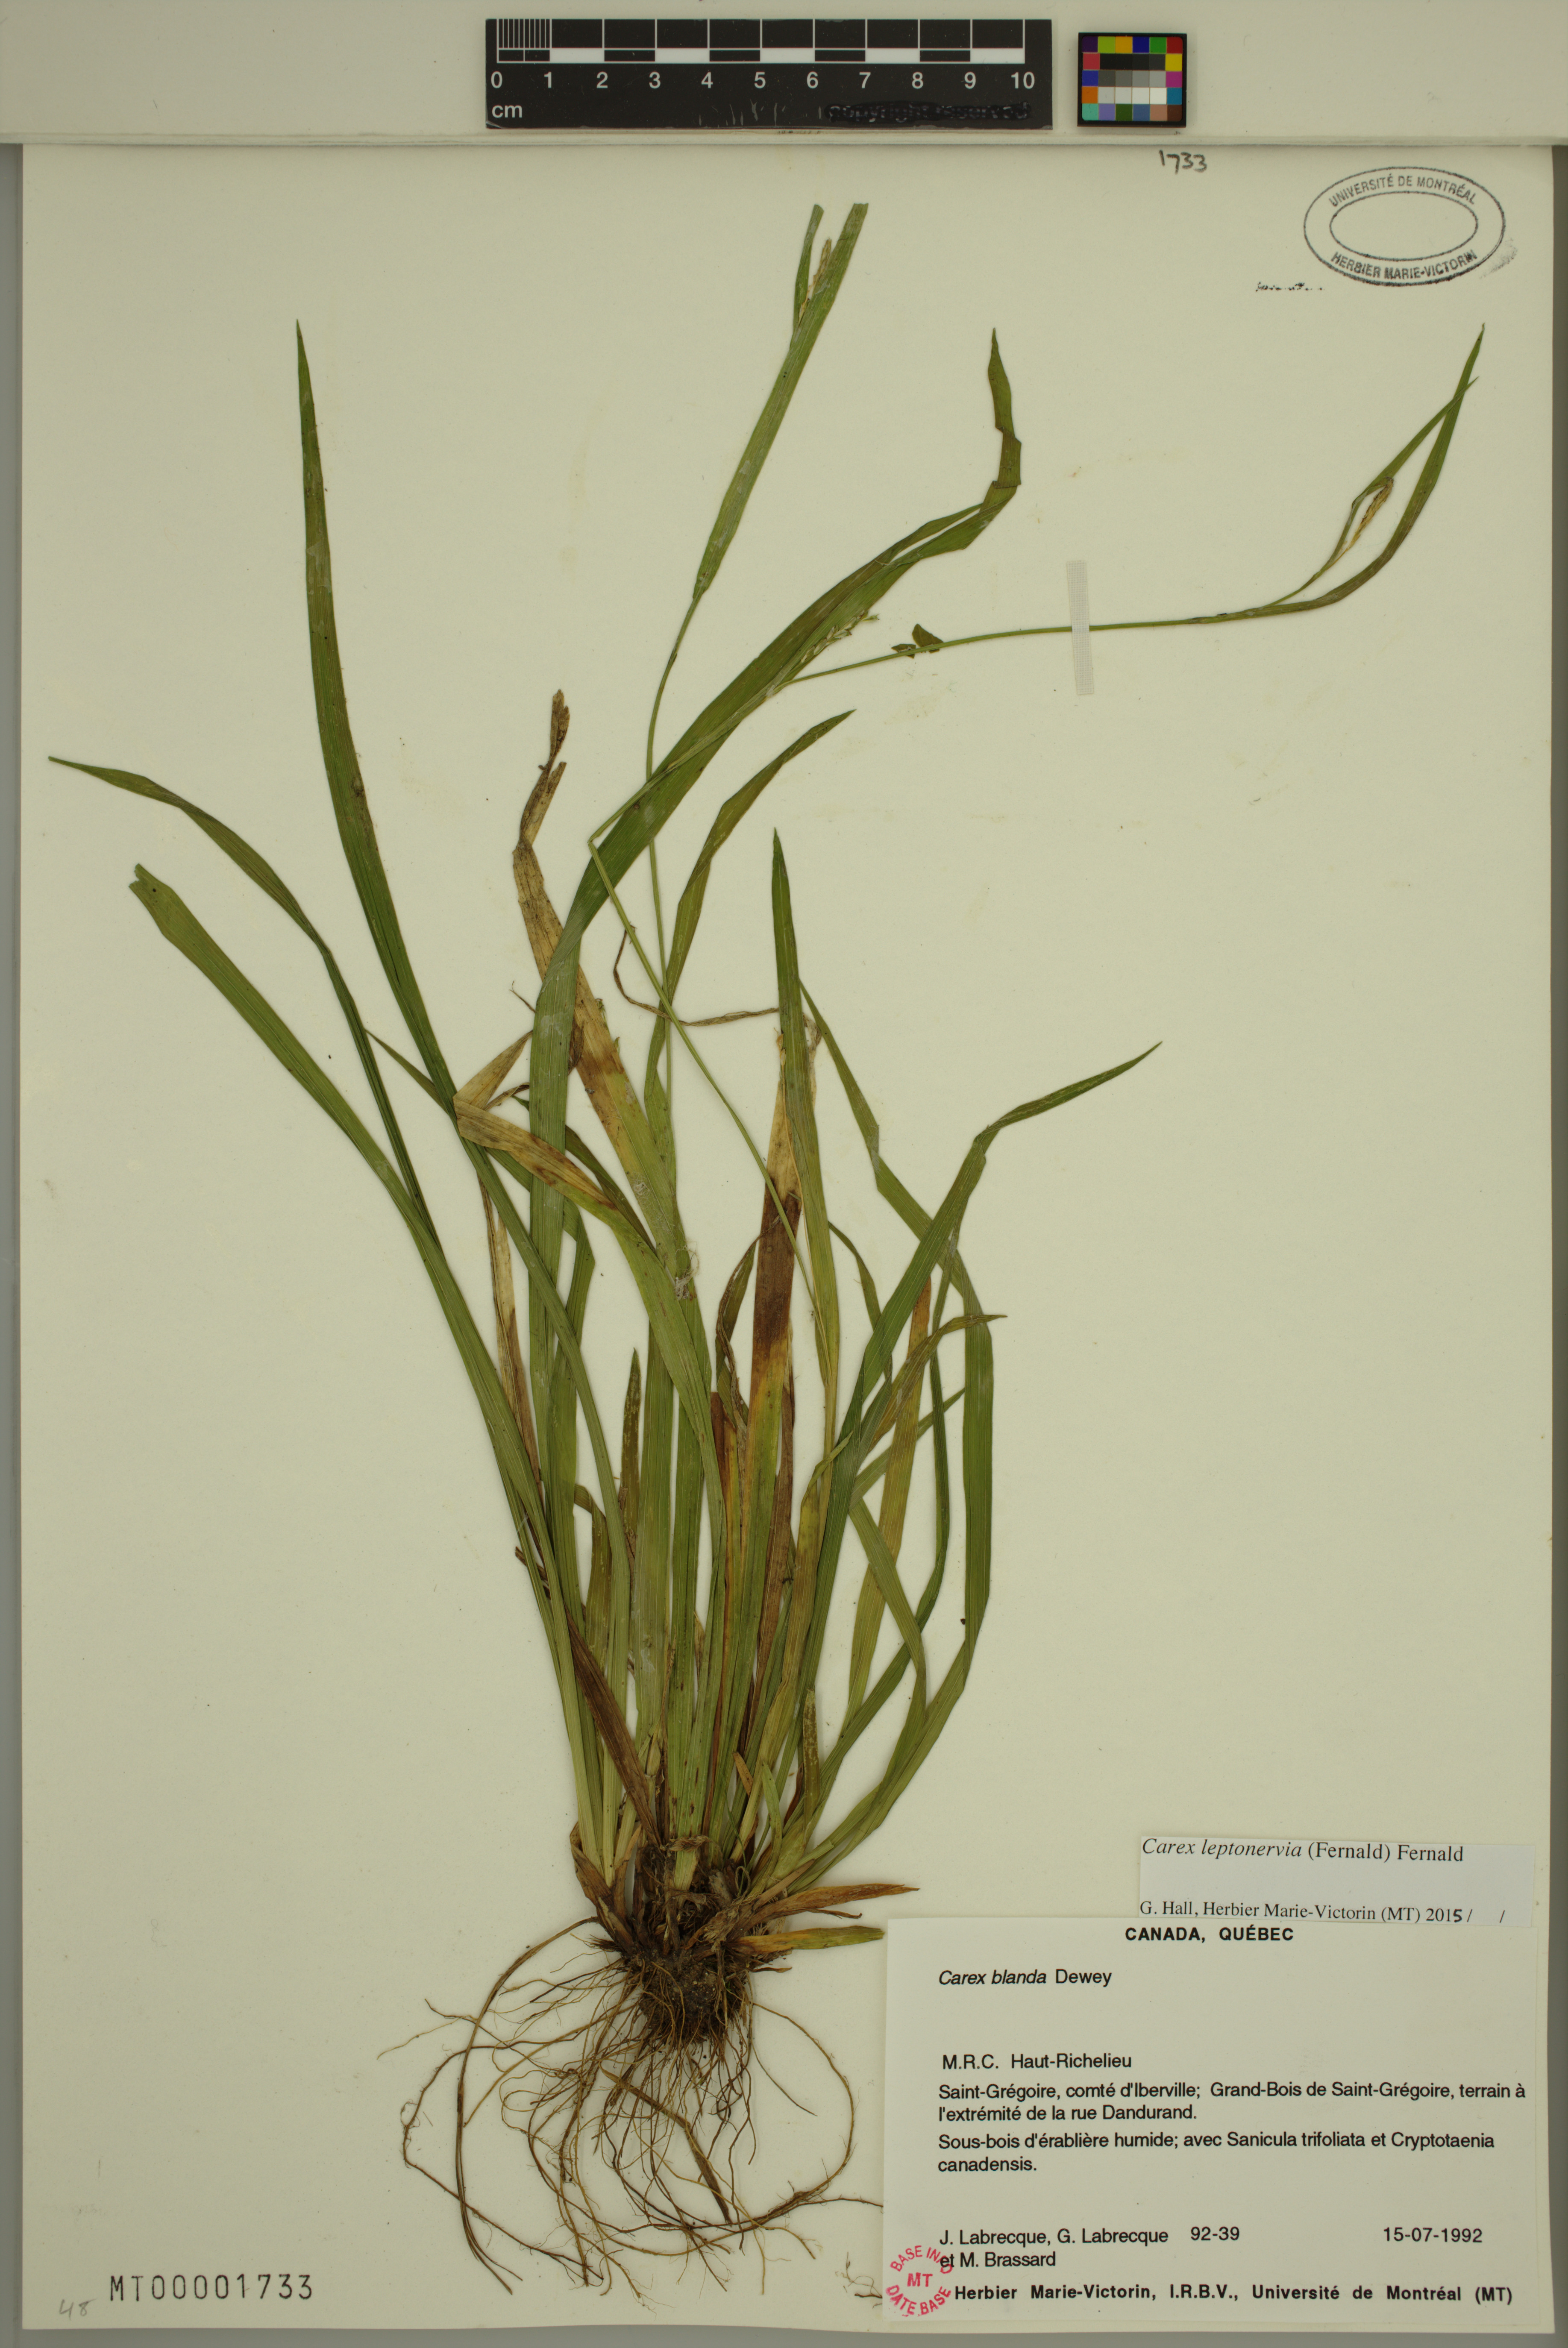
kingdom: Plantae
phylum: Tracheophyta
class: Liliopsida
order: Poales
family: Cyperaceae
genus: Carex
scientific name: Carex leptonervia
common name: Few-nerved wood sedge
